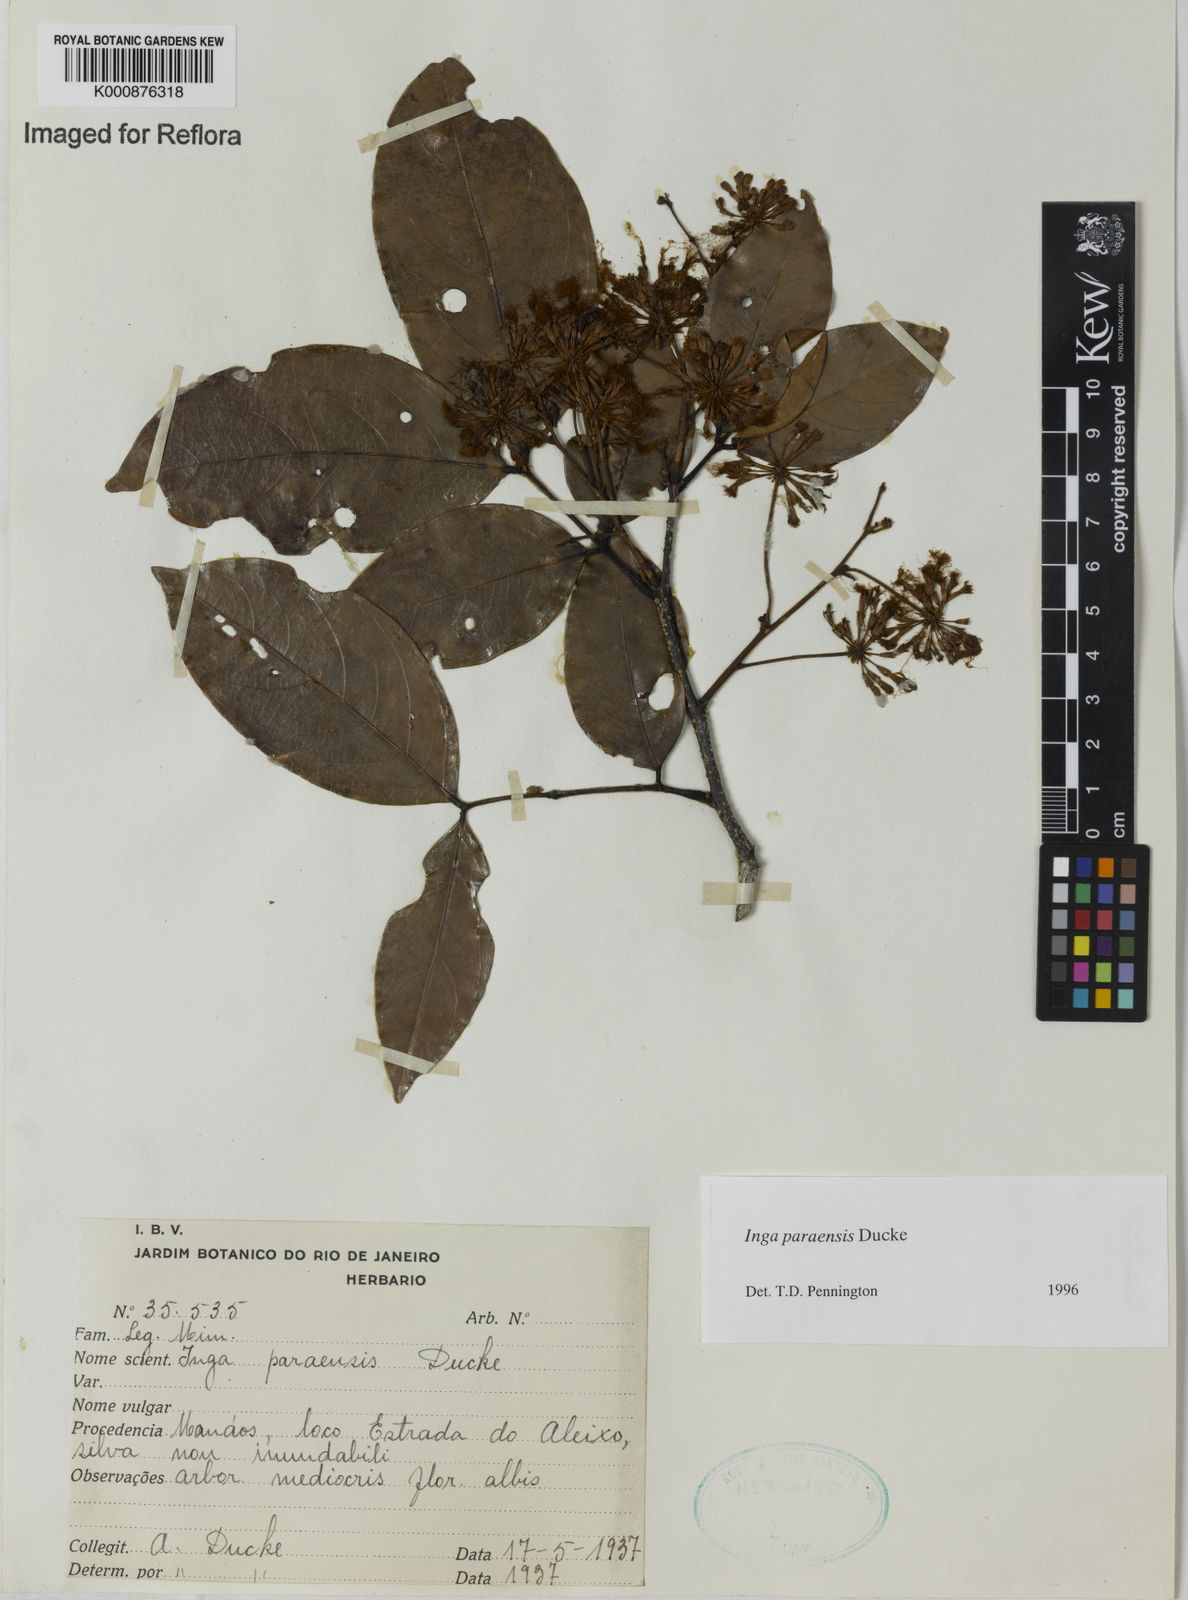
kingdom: Plantae
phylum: Tracheophyta
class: Magnoliopsida
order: Fabales
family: Fabaceae
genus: Inga
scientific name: Inga paraensis
